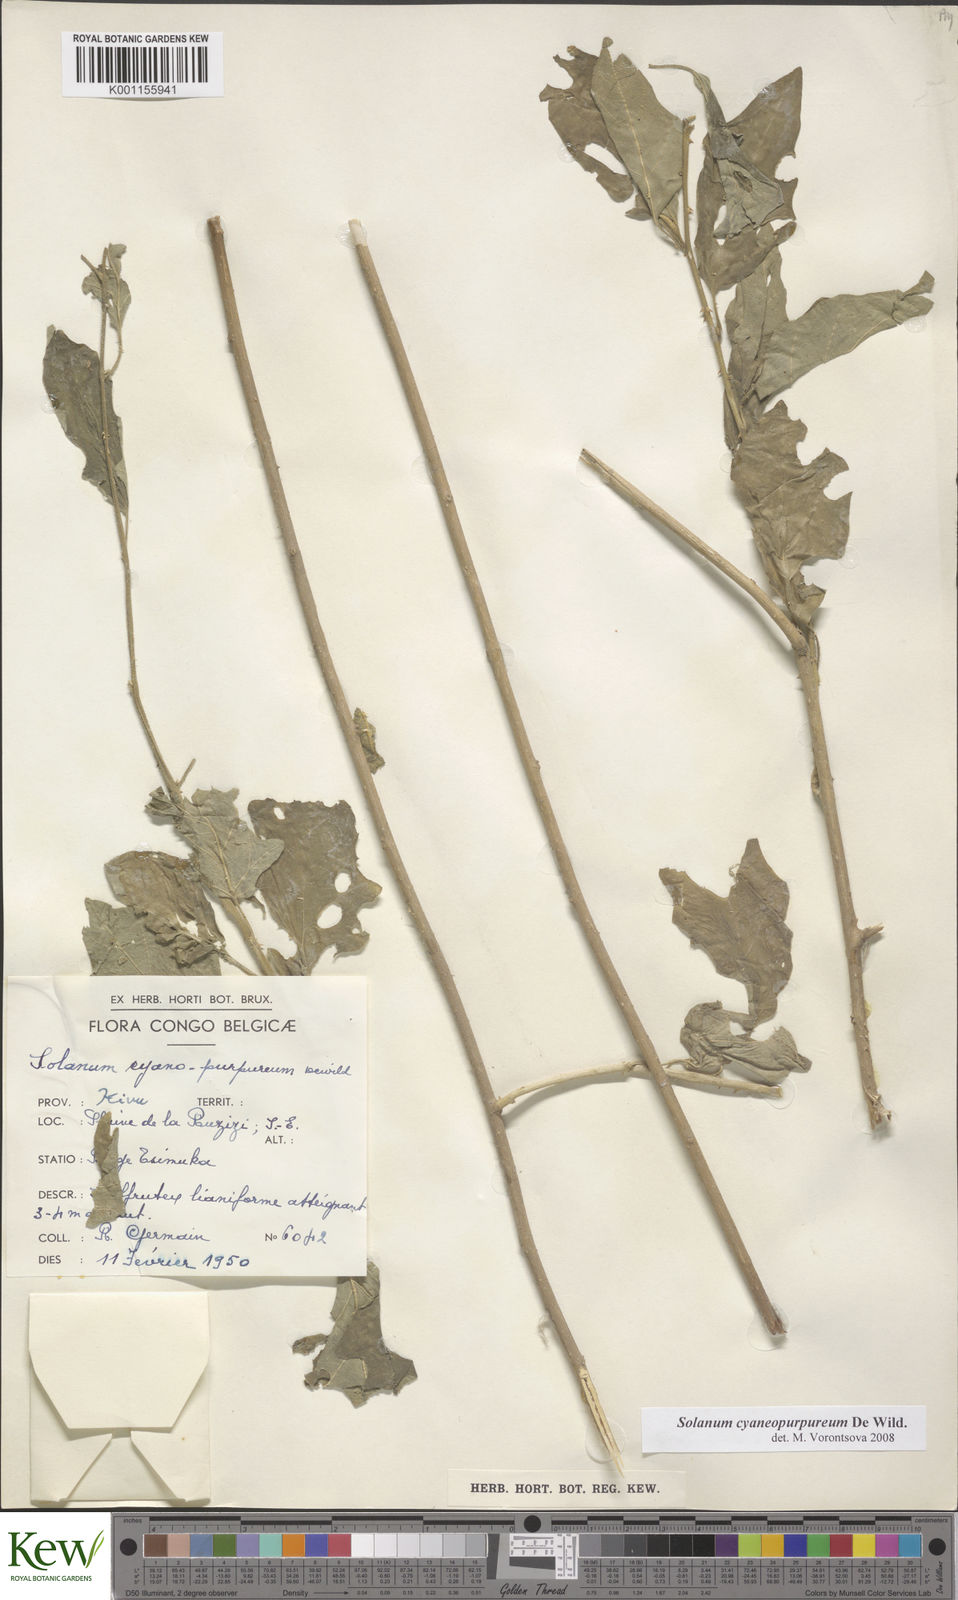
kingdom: Plantae
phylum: Tracheophyta
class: Magnoliopsida
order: Solanales
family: Solanaceae
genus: Solanum
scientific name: Solanum cyaneopurpureum
